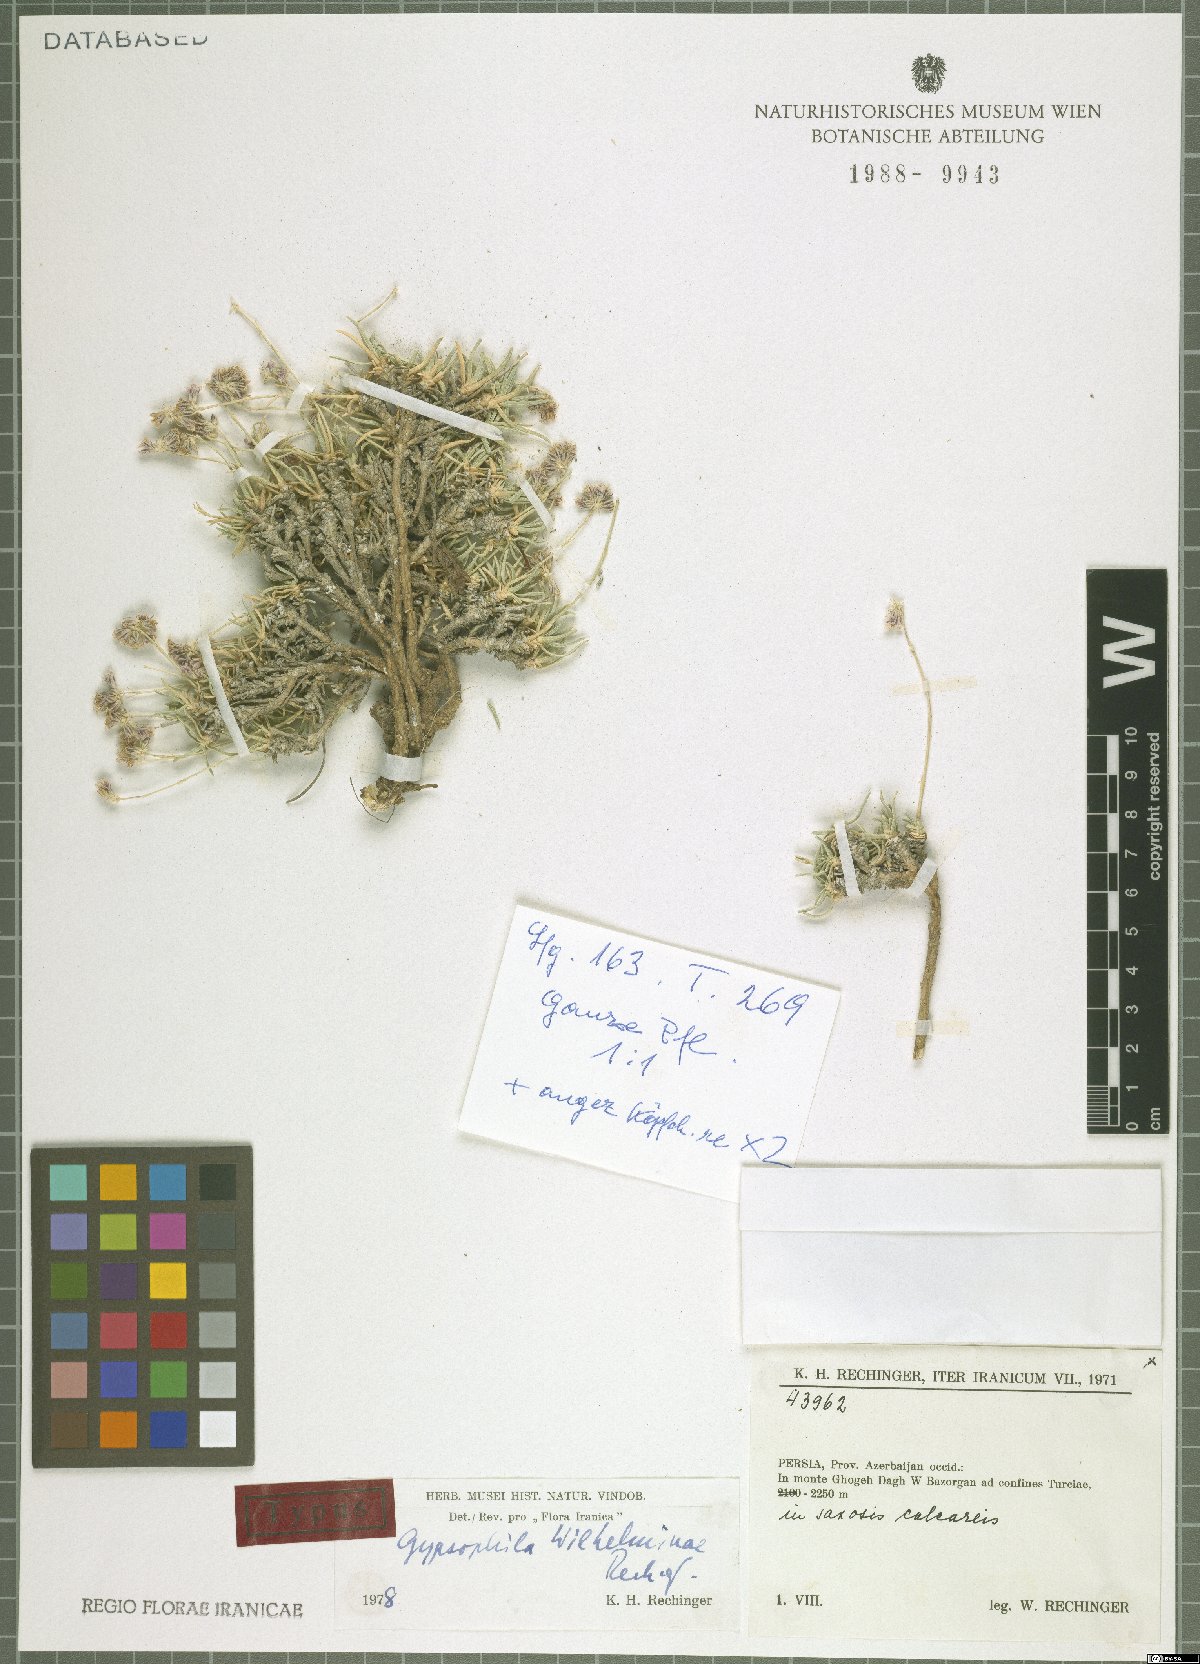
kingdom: Plantae
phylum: Tracheophyta
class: Magnoliopsida
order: Caryophyllales
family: Caryophyllaceae
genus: Gypsophila
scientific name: Gypsophila wilhelminae
